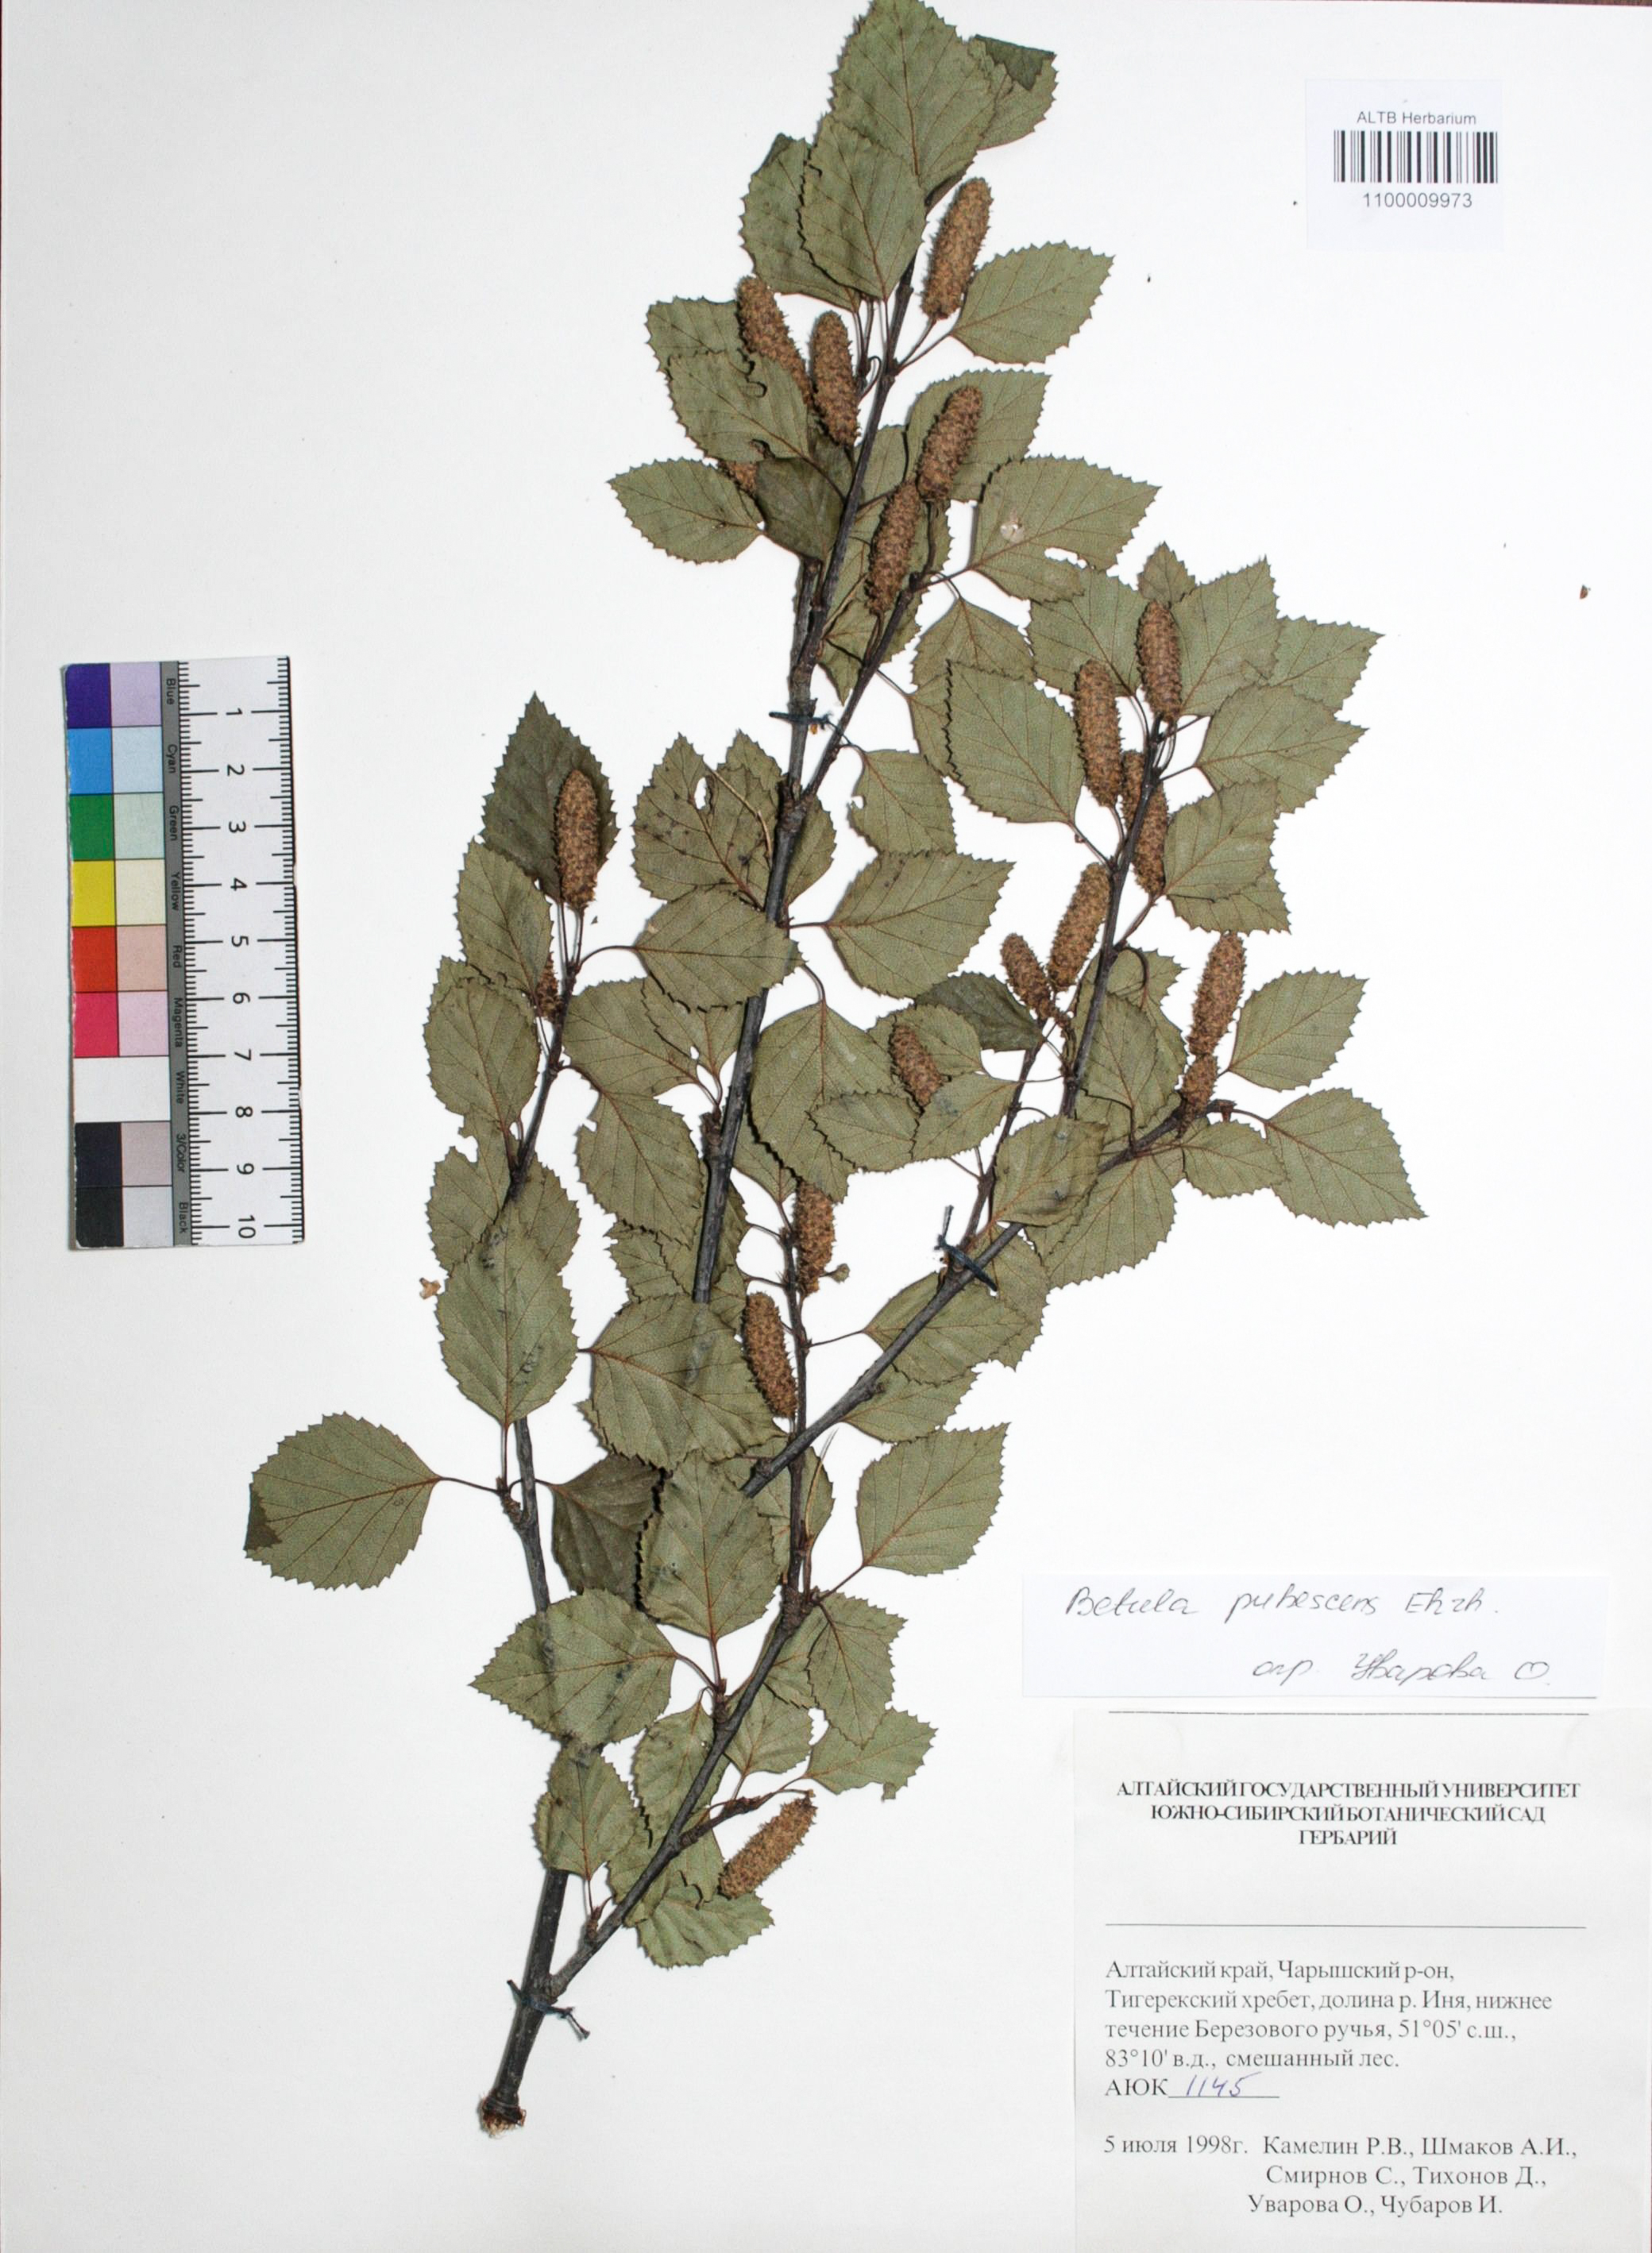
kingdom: Plantae
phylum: Tracheophyta
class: Magnoliopsida
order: Fagales
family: Betulaceae
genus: Betula
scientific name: Betula pubescens
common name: Downy birch
